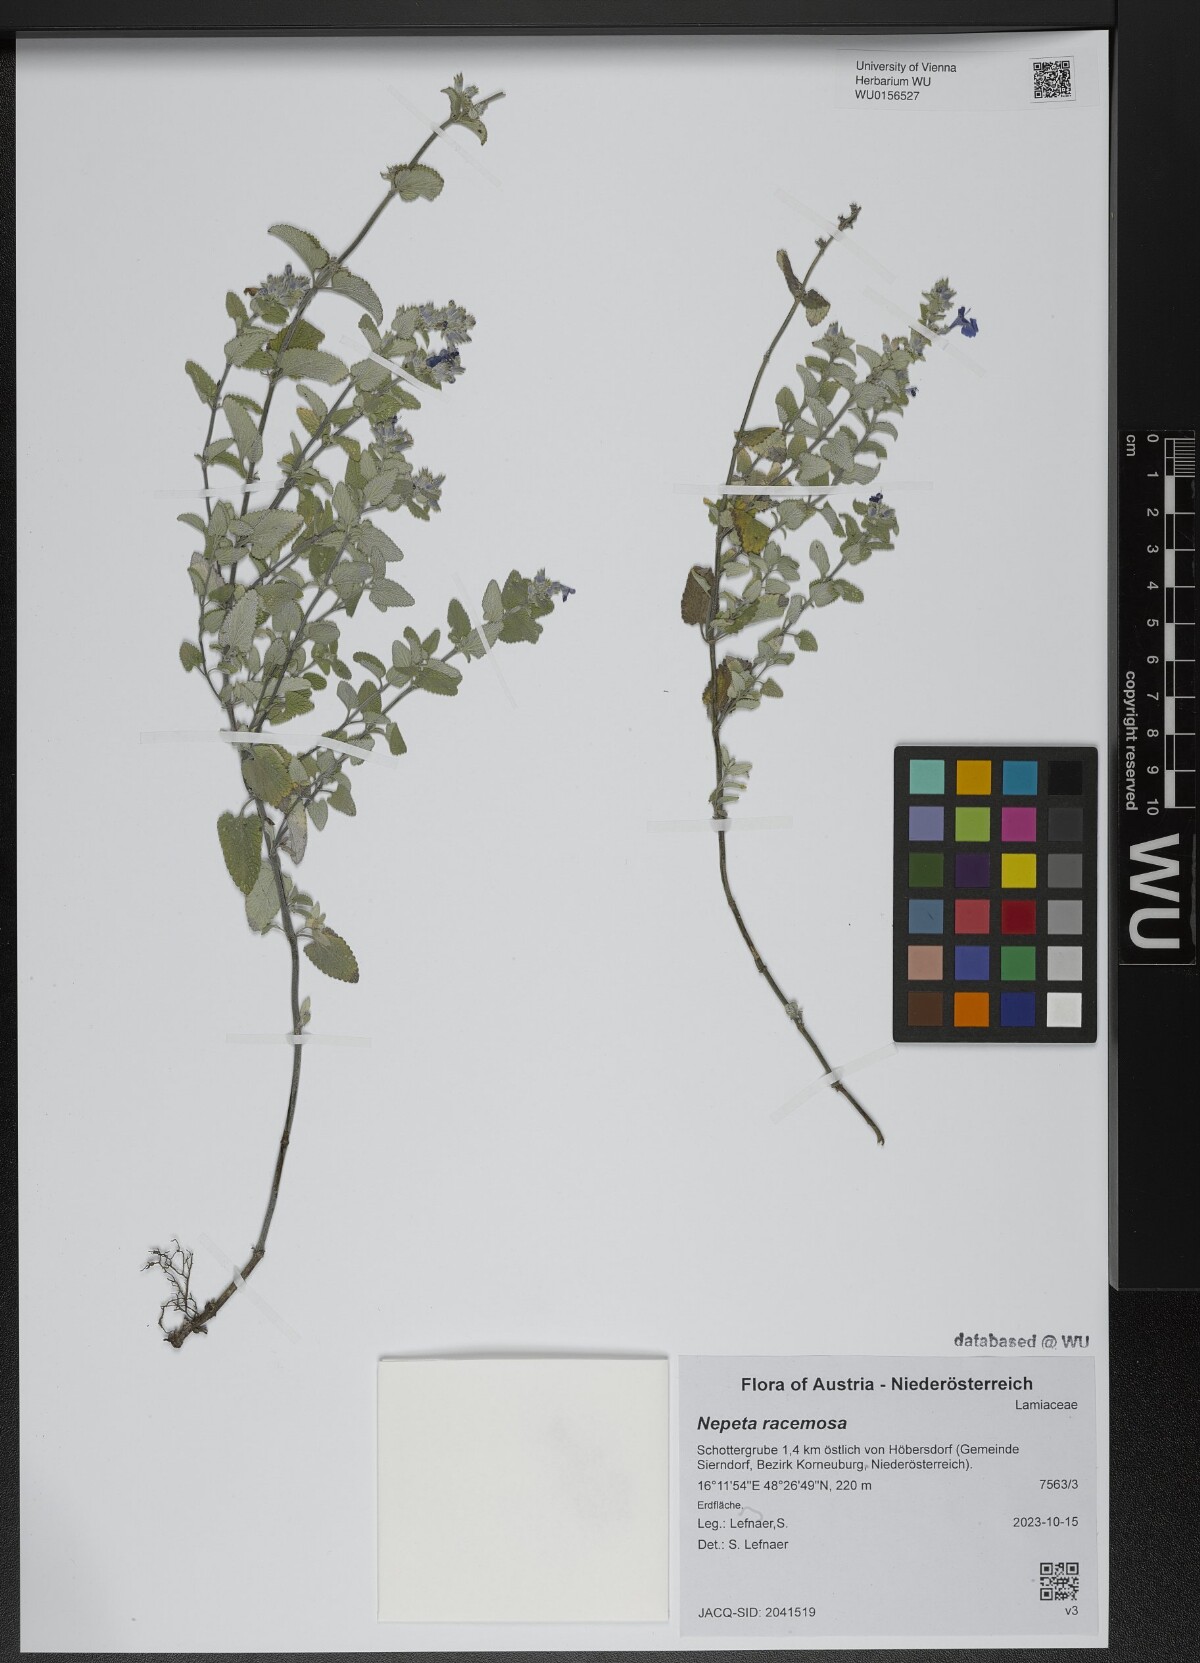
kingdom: Plantae
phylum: Tracheophyta
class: Magnoliopsida
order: Lamiales
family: Lamiaceae
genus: Nepeta
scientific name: Nepeta racemosa
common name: Raceme catnip
